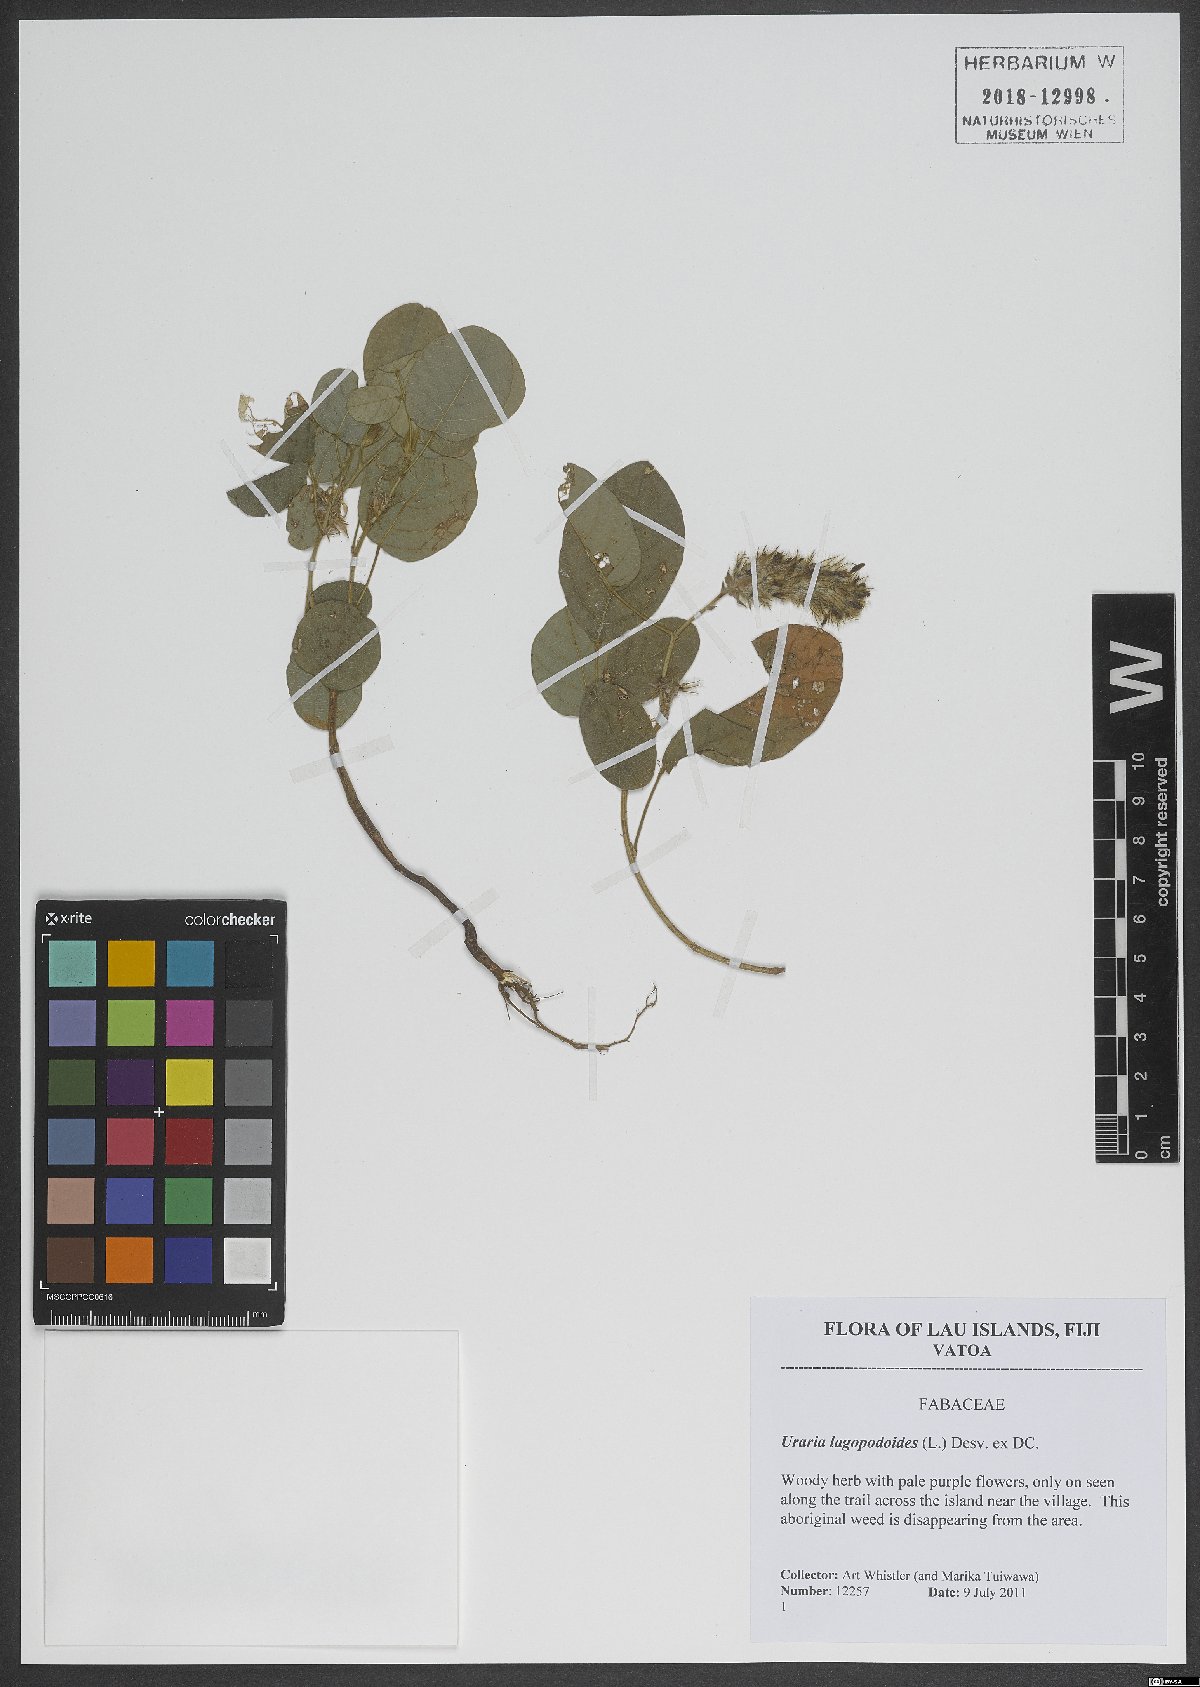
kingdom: Plantae
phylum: Tracheophyta
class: Magnoliopsida
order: Fabales
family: Fabaceae
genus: Uraria
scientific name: Uraria lagopodioides
